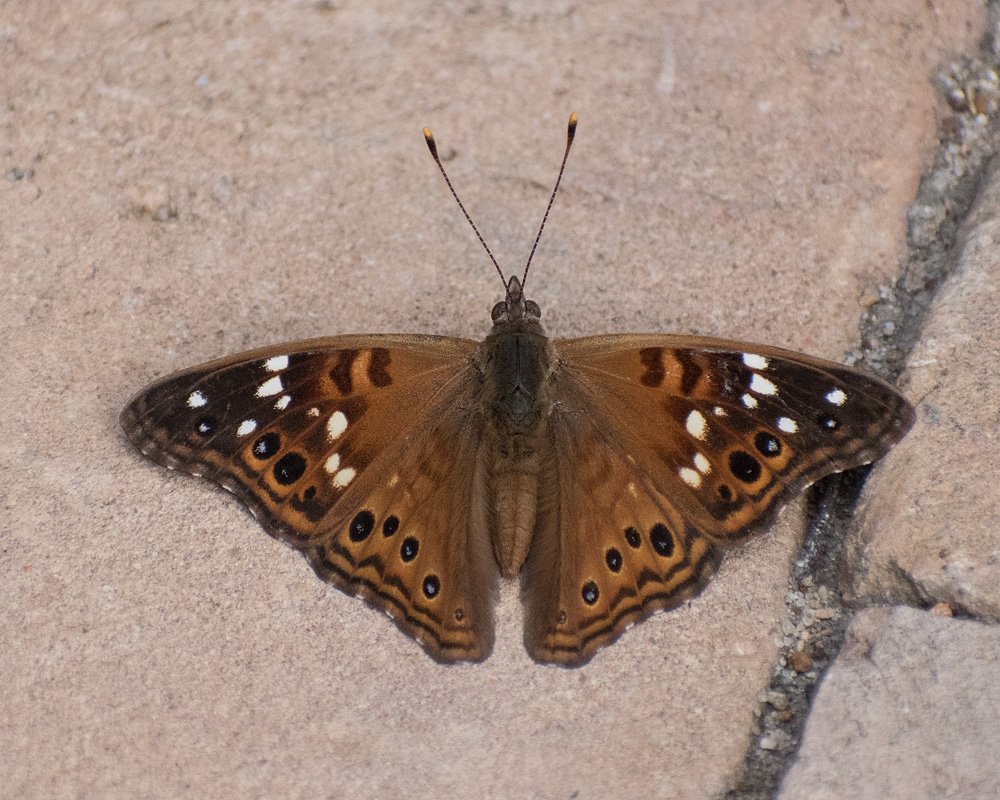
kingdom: Animalia
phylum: Arthropoda
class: Insecta
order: Lepidoptera
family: Nymphalidae
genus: Asterocampa
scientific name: Asterocampa leilia
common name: Empress Leilia
